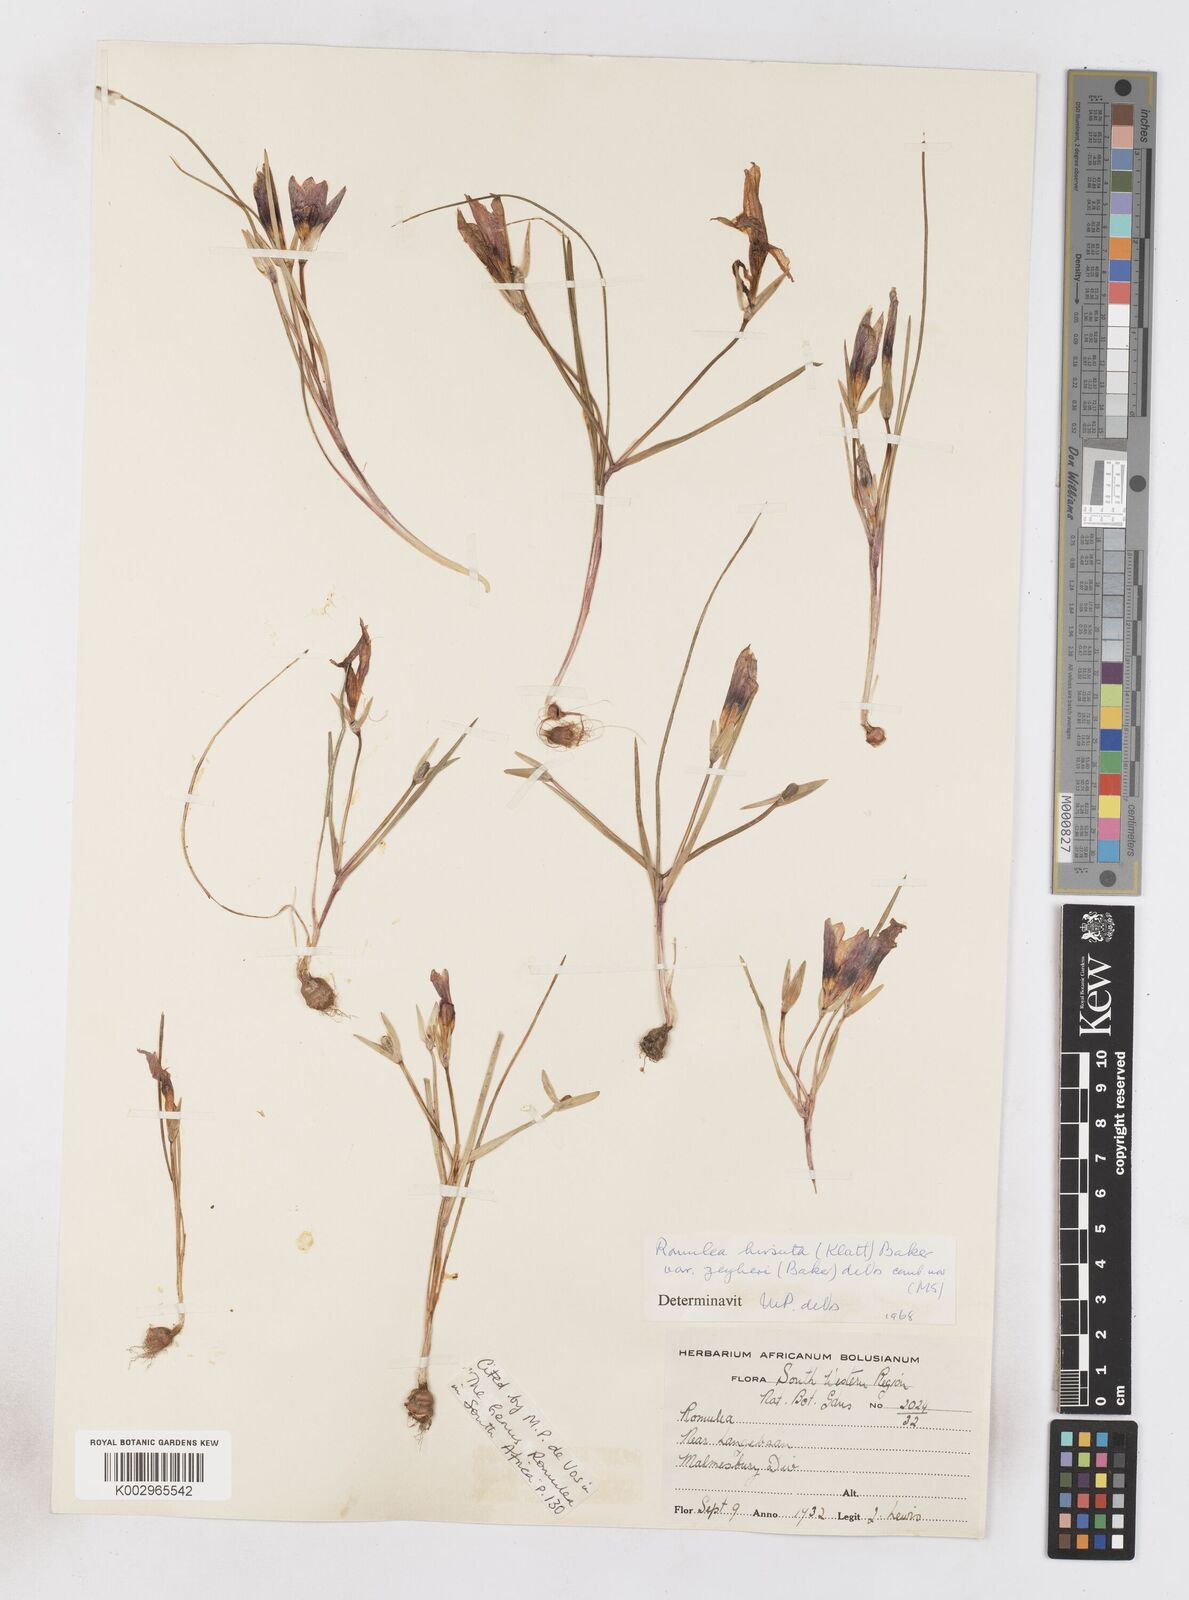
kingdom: Plantae
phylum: Tracheophyta
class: Liliopsida
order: Asparagales
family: Iridaceae
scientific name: Iridaceae
